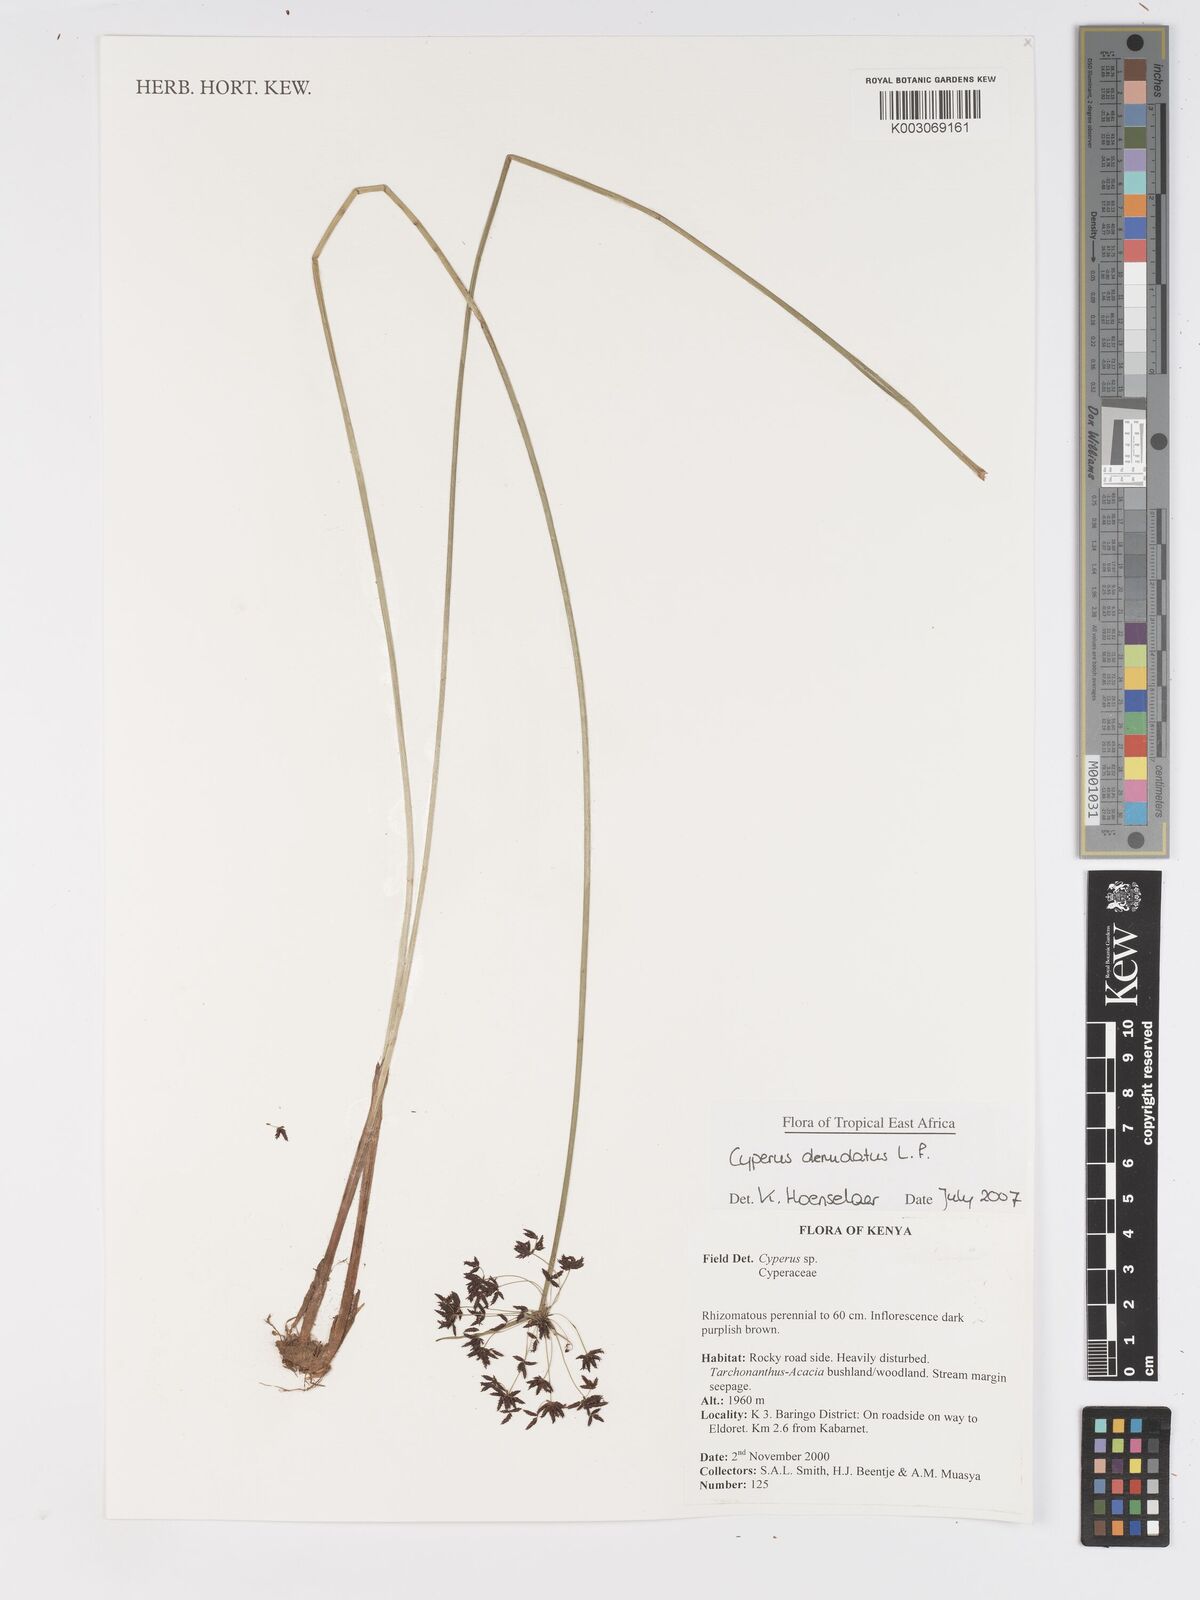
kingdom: Plantae
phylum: Tracheophyta
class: Liliopsida
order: Poales
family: Cyperaceae
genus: Cyperus
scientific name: Cyperus denudatus
